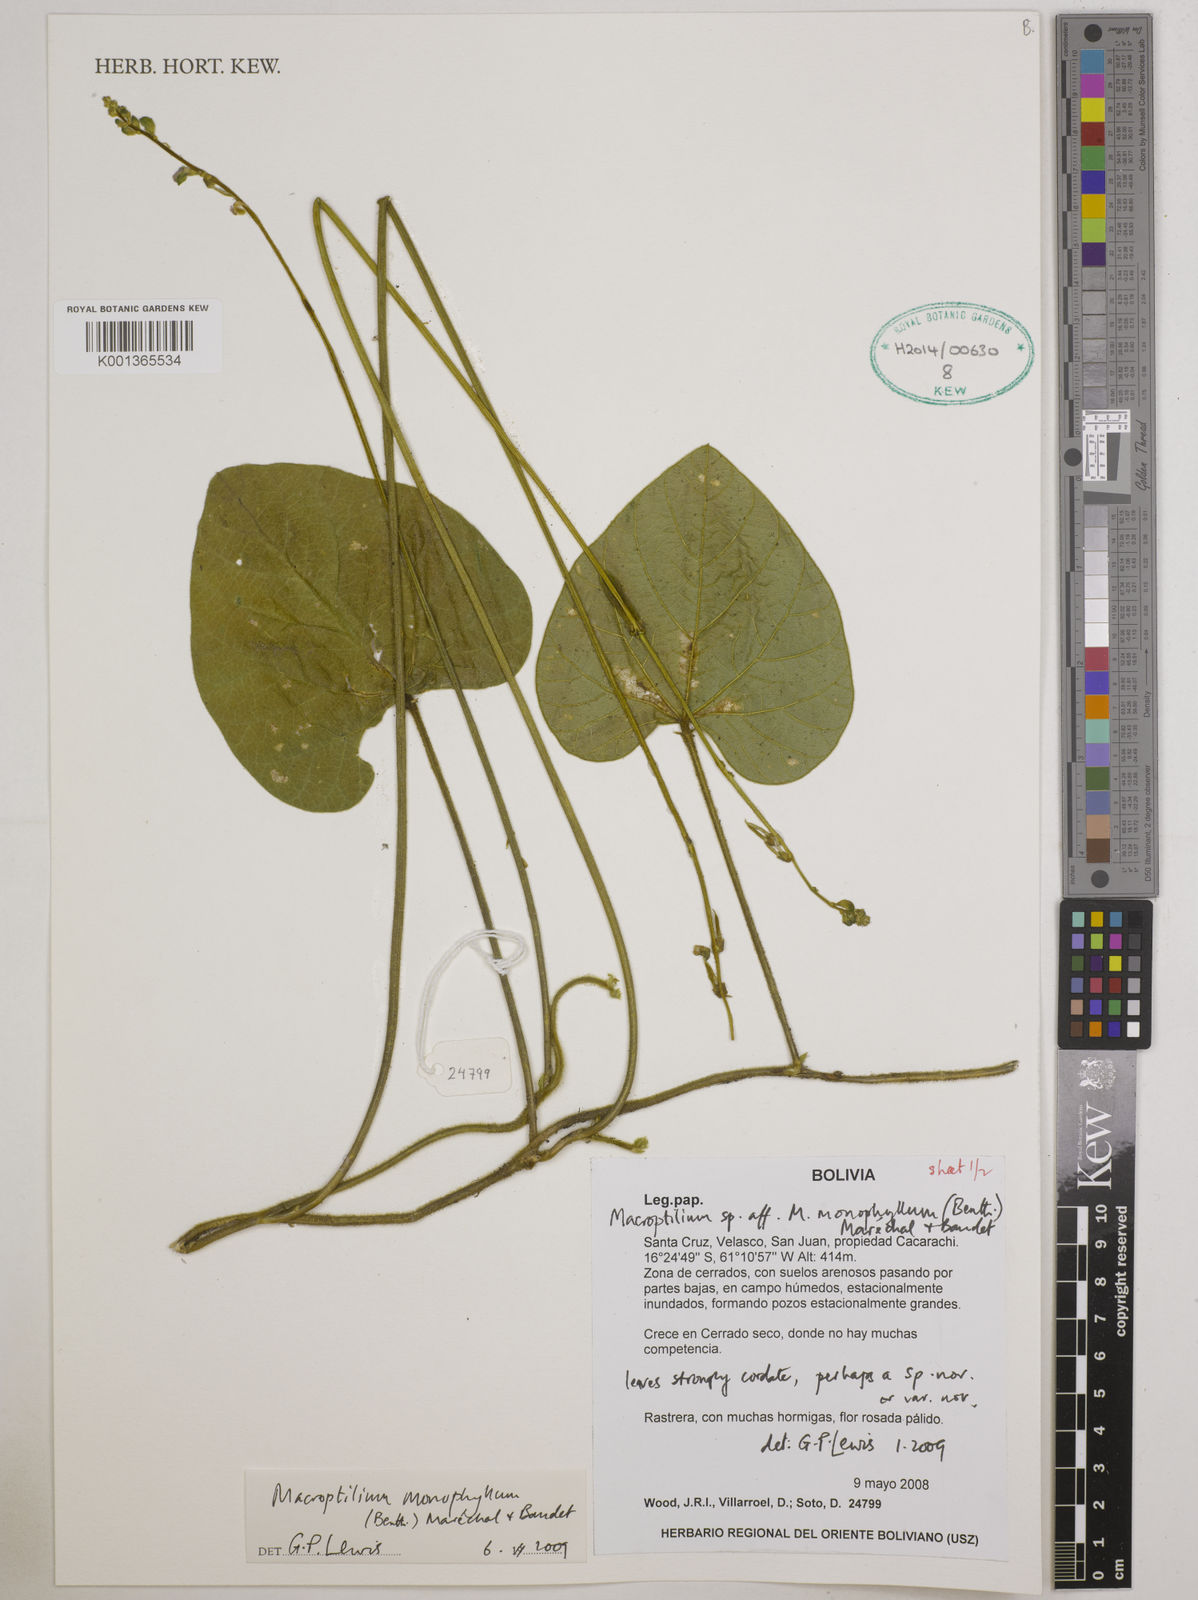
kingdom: Plantae
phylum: Tracheophyta
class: Magnoliopsida
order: Fabales
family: Fabaceae
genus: Macroptilium
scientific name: Macroptilium monophyllum
